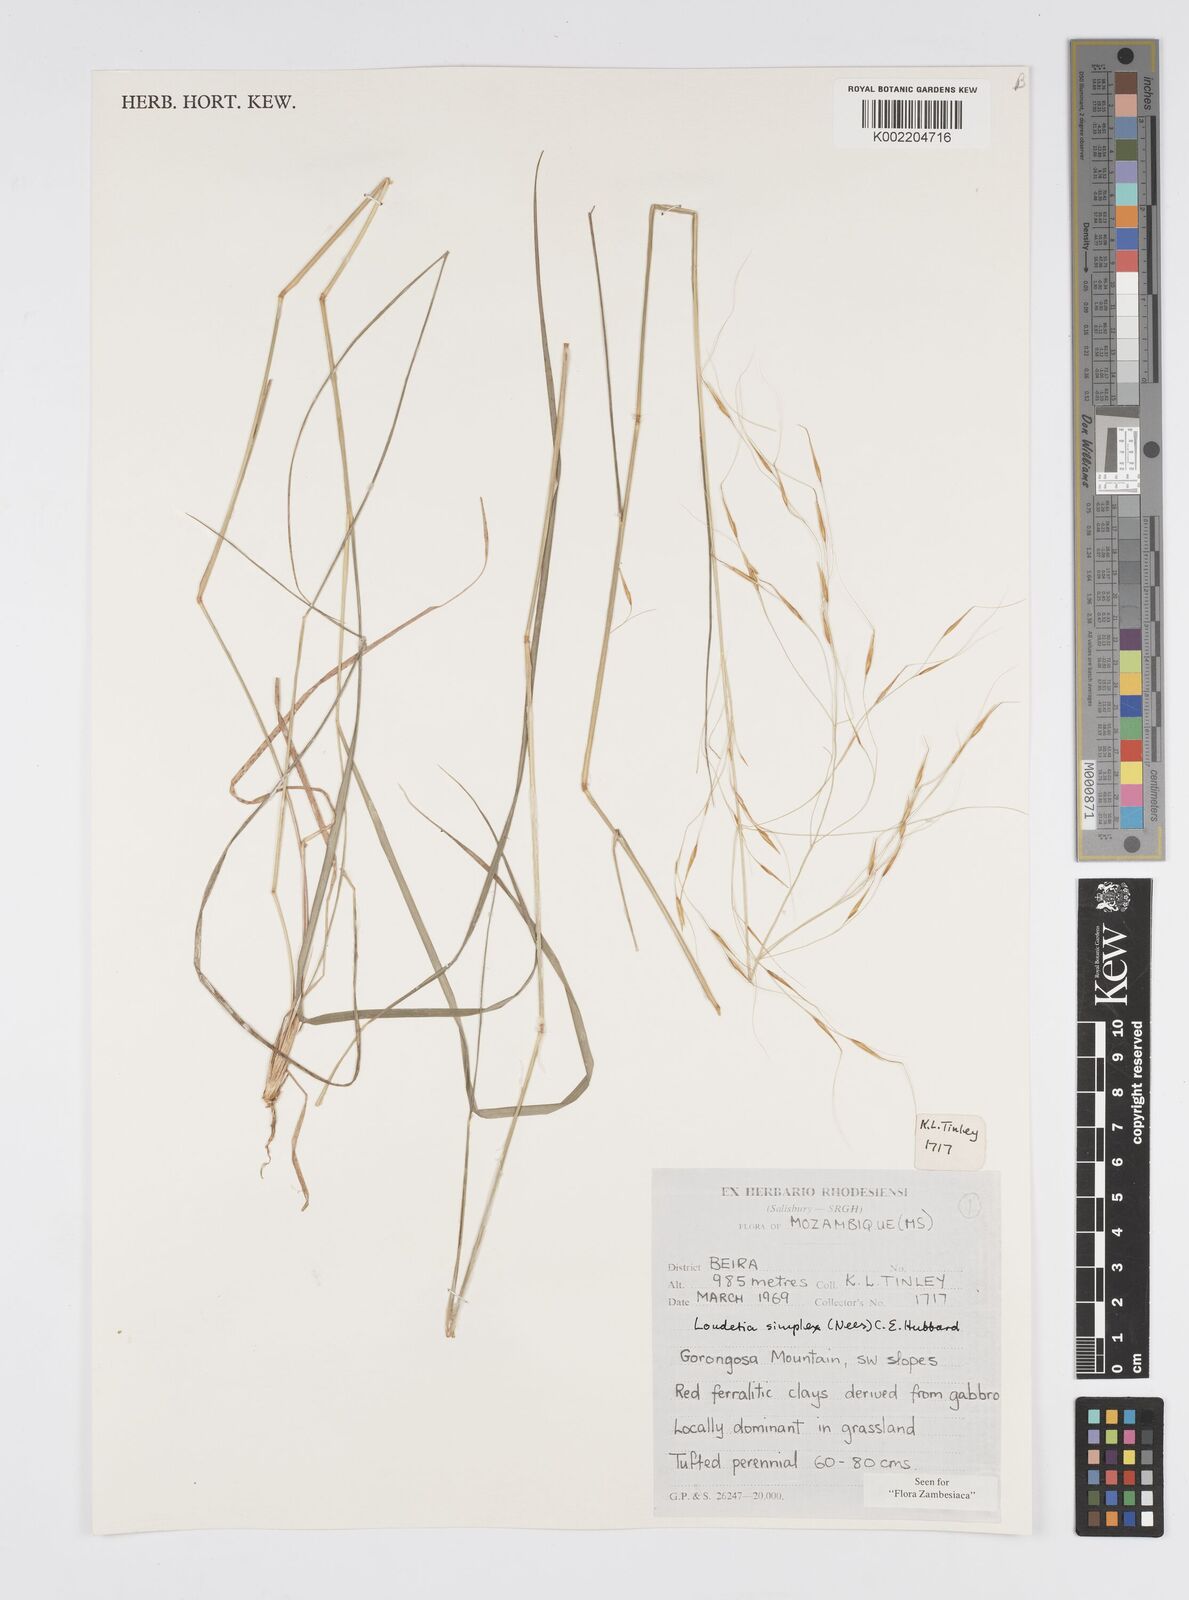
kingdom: Plantae
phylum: Tracheophyta
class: Liliopsida
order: Poales
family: Poaceae
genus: Loudetia
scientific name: Loudetia simplex
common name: Common russet grass
